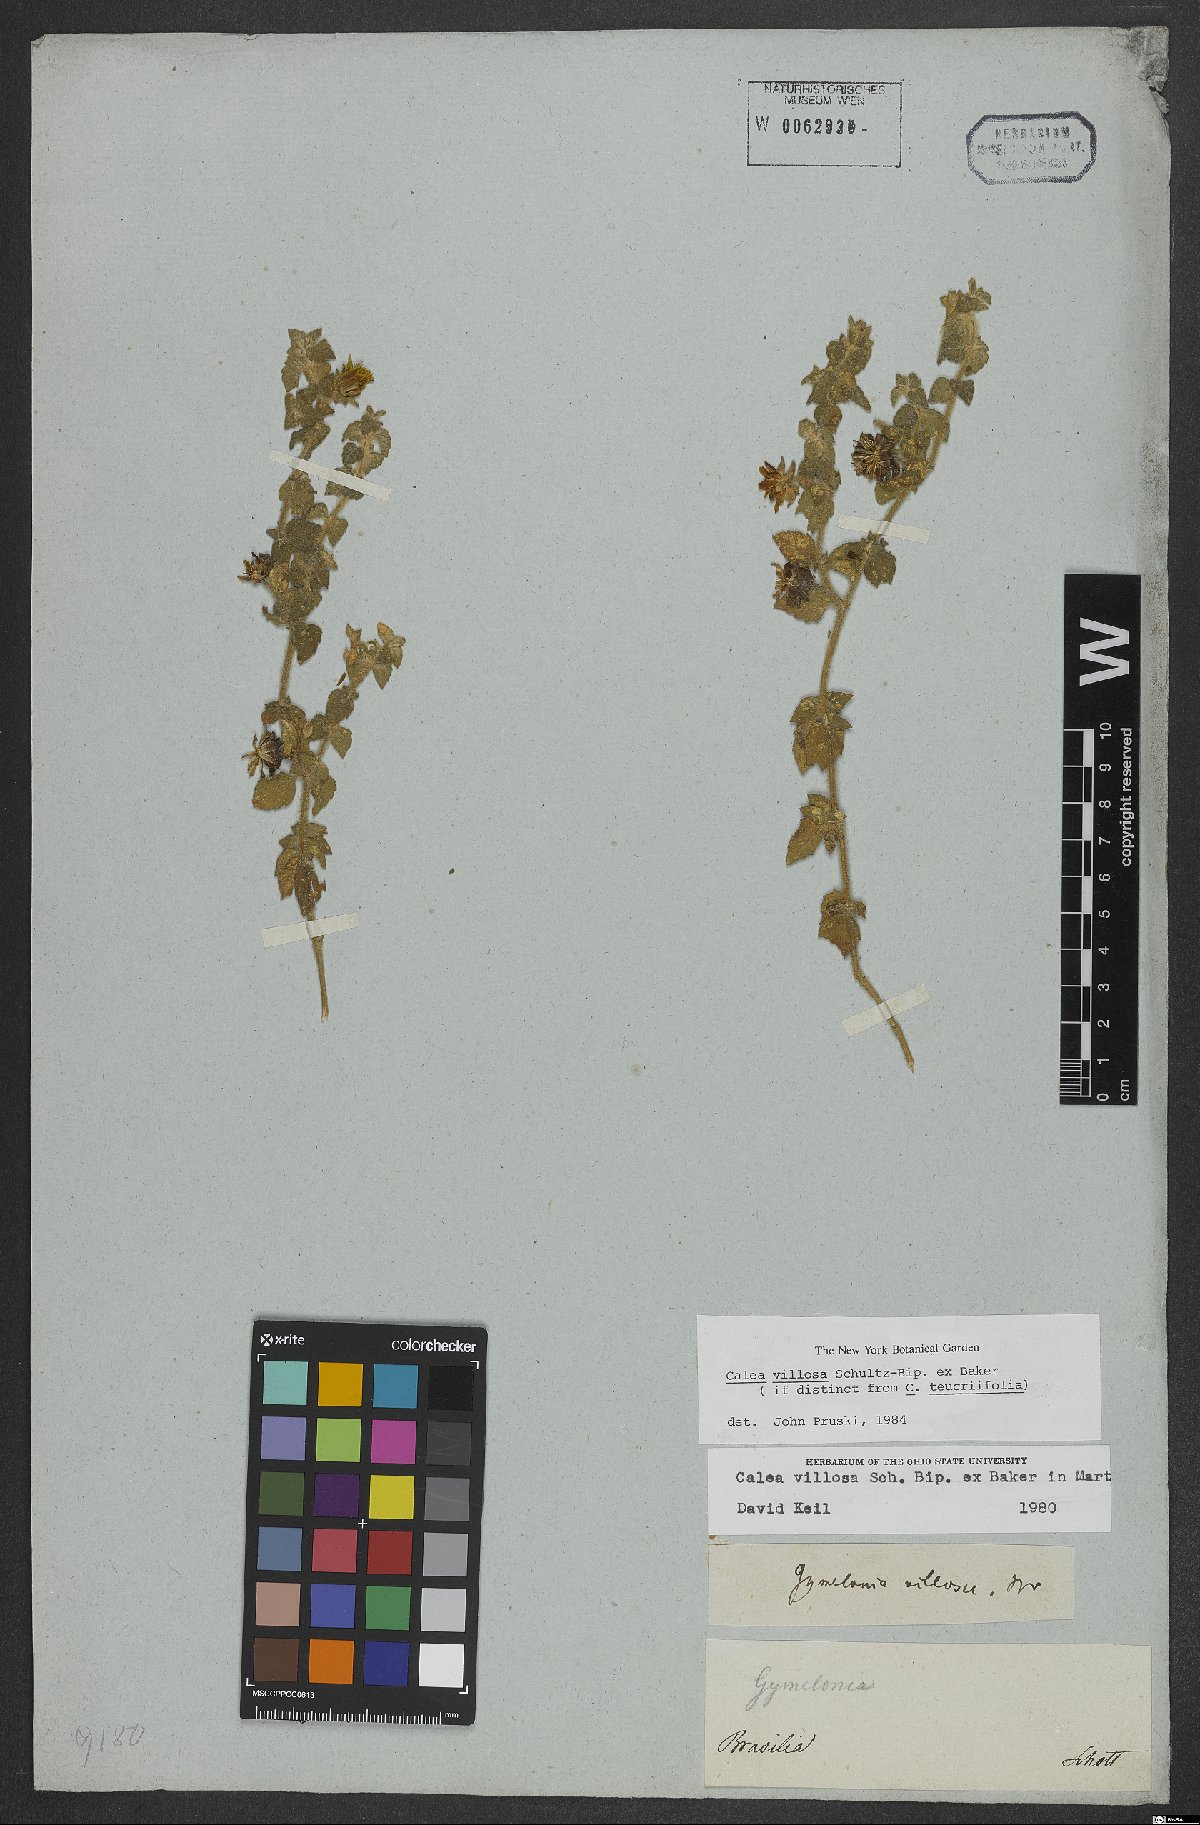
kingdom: Plantae
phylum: Tracheophyta
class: Magnoliopsida
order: Asterales
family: Asteraceae
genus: Calea
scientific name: Calea villosa
